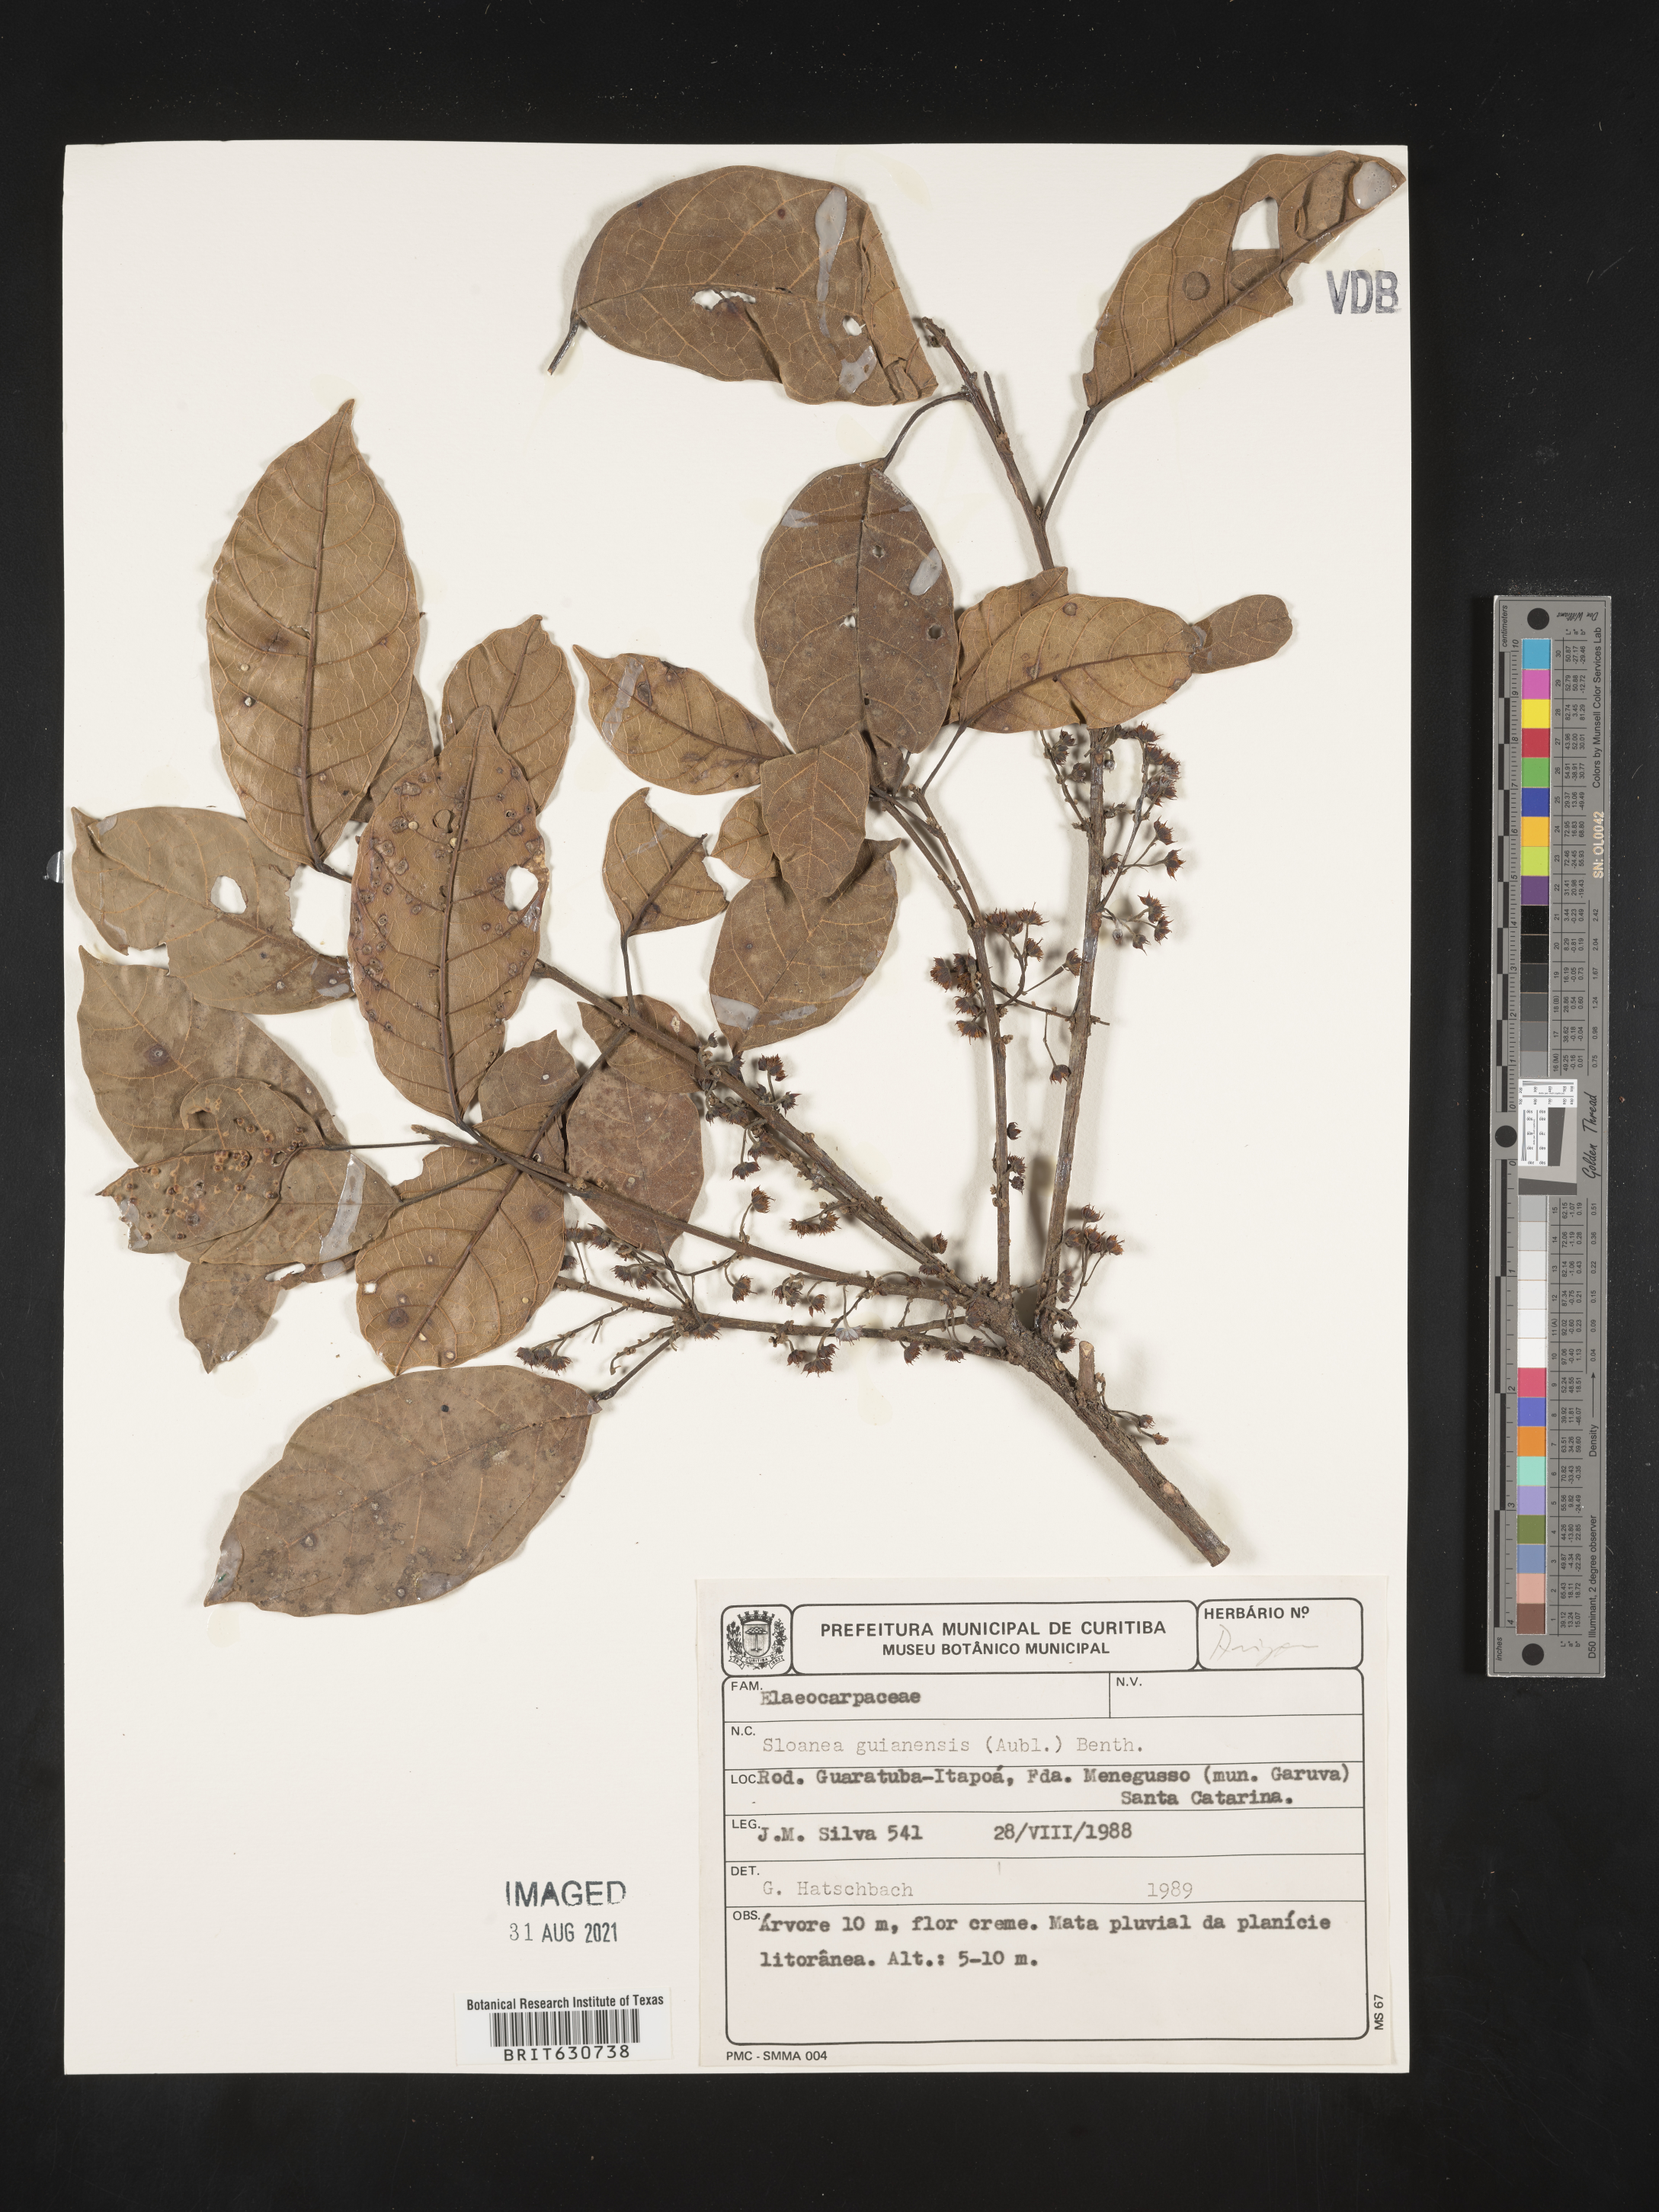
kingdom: Plantae
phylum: Tracheophyta
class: Magnoliopsida
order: Oxalidales
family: Elaeocarpaceae
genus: Sloanea
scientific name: Sloanea
